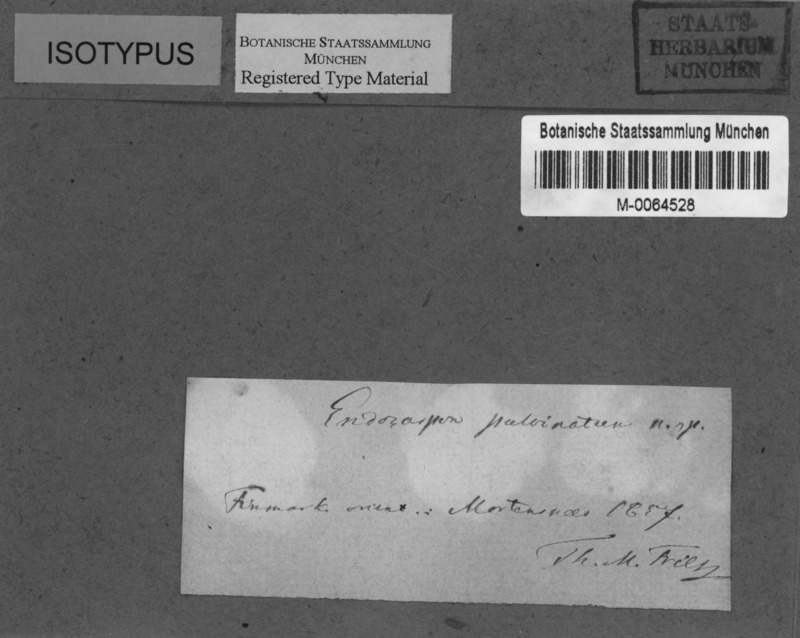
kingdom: Fungi
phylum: Ascomycota
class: Eurotiomycetes
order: Verrucariales
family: Verrucariaceae
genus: Staurothele
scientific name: Staurothele pulvinata
